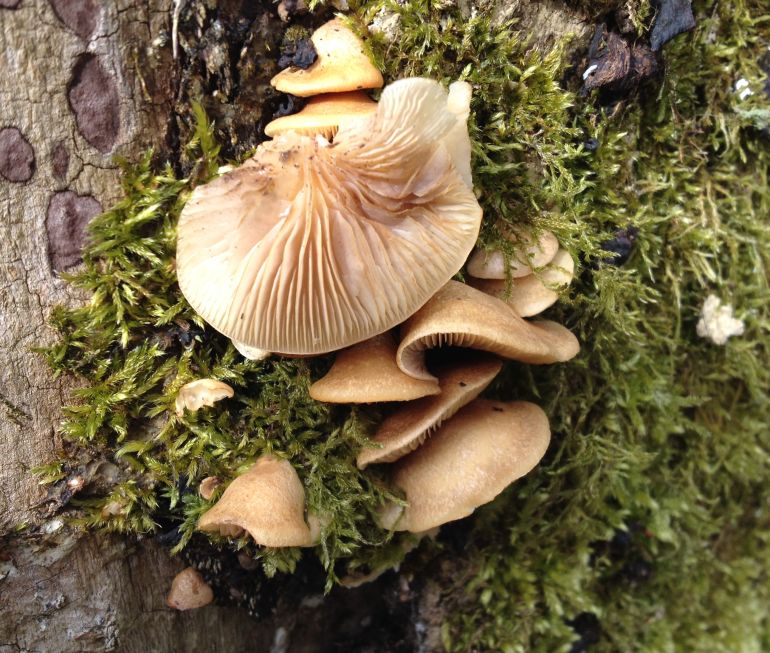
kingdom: Fungi
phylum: Basidiomycota
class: Agaricomycetes
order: Agaricales
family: Crepidotaceae
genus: Crepidotus
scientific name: Crepidotus mollis
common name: blød muslingesvamp
